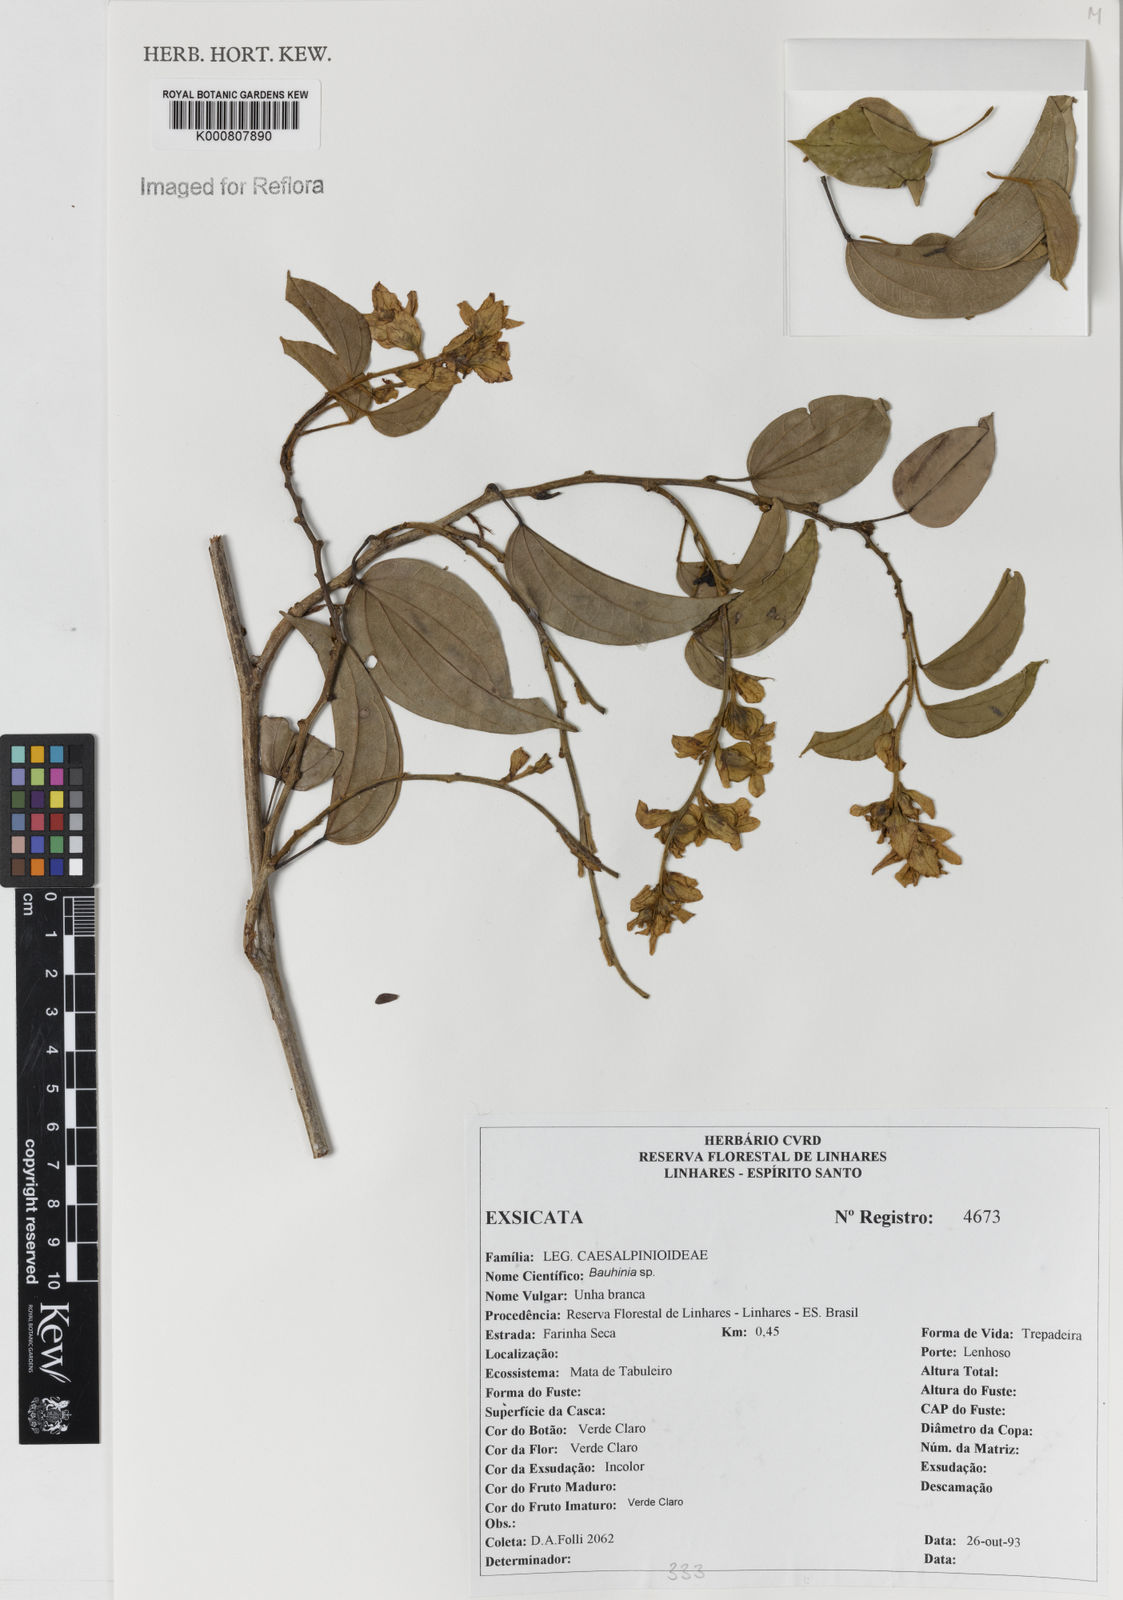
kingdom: Plantae
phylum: Tracheophyta
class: Magnoliopsida
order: Fabales
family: Fabaceae
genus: Schnella
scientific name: Schnella grazielae
